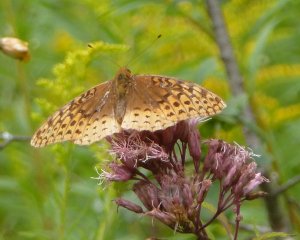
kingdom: Animalia
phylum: Arthropoda
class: Insecta
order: Lepidoptera
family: Nymphalidae
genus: Speyeria
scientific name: Speyeria cybele
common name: Great Spangled Fritillary
